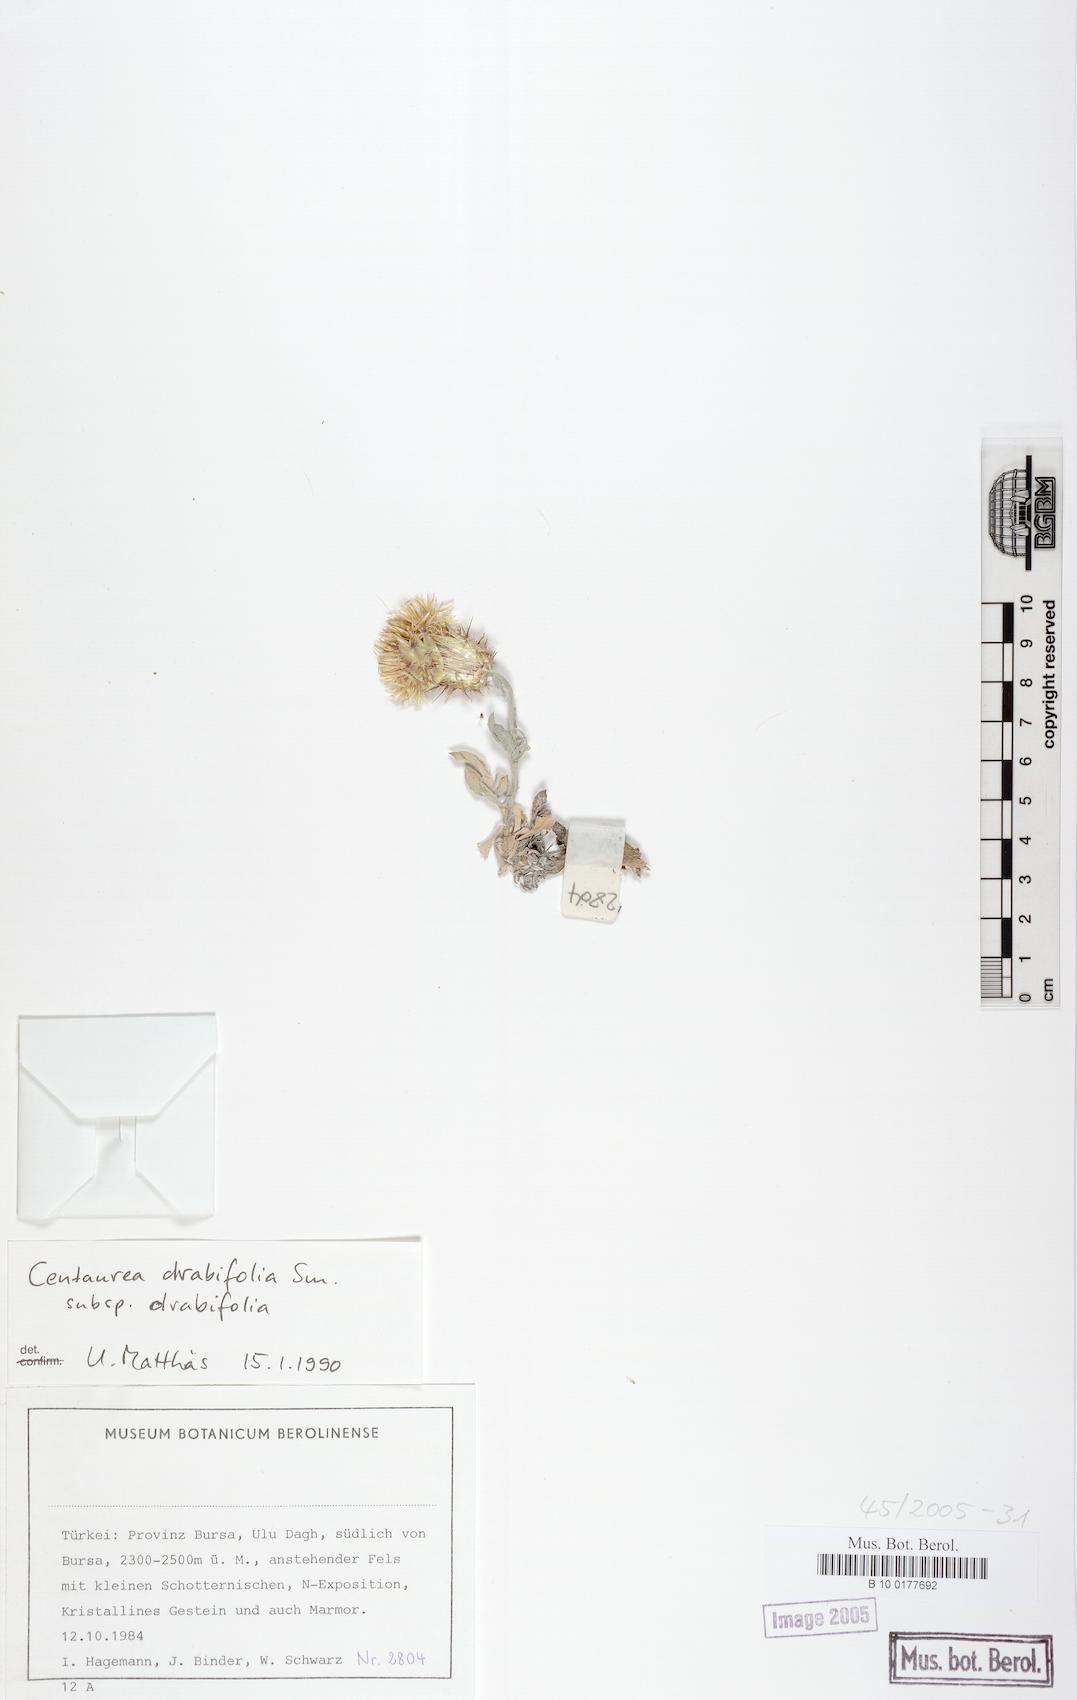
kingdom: Plantae
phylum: Tracheophyta
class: Magnoliopsida
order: Asterales
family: Asteraceae
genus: Centaurea
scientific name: Centaurea drabifolia
